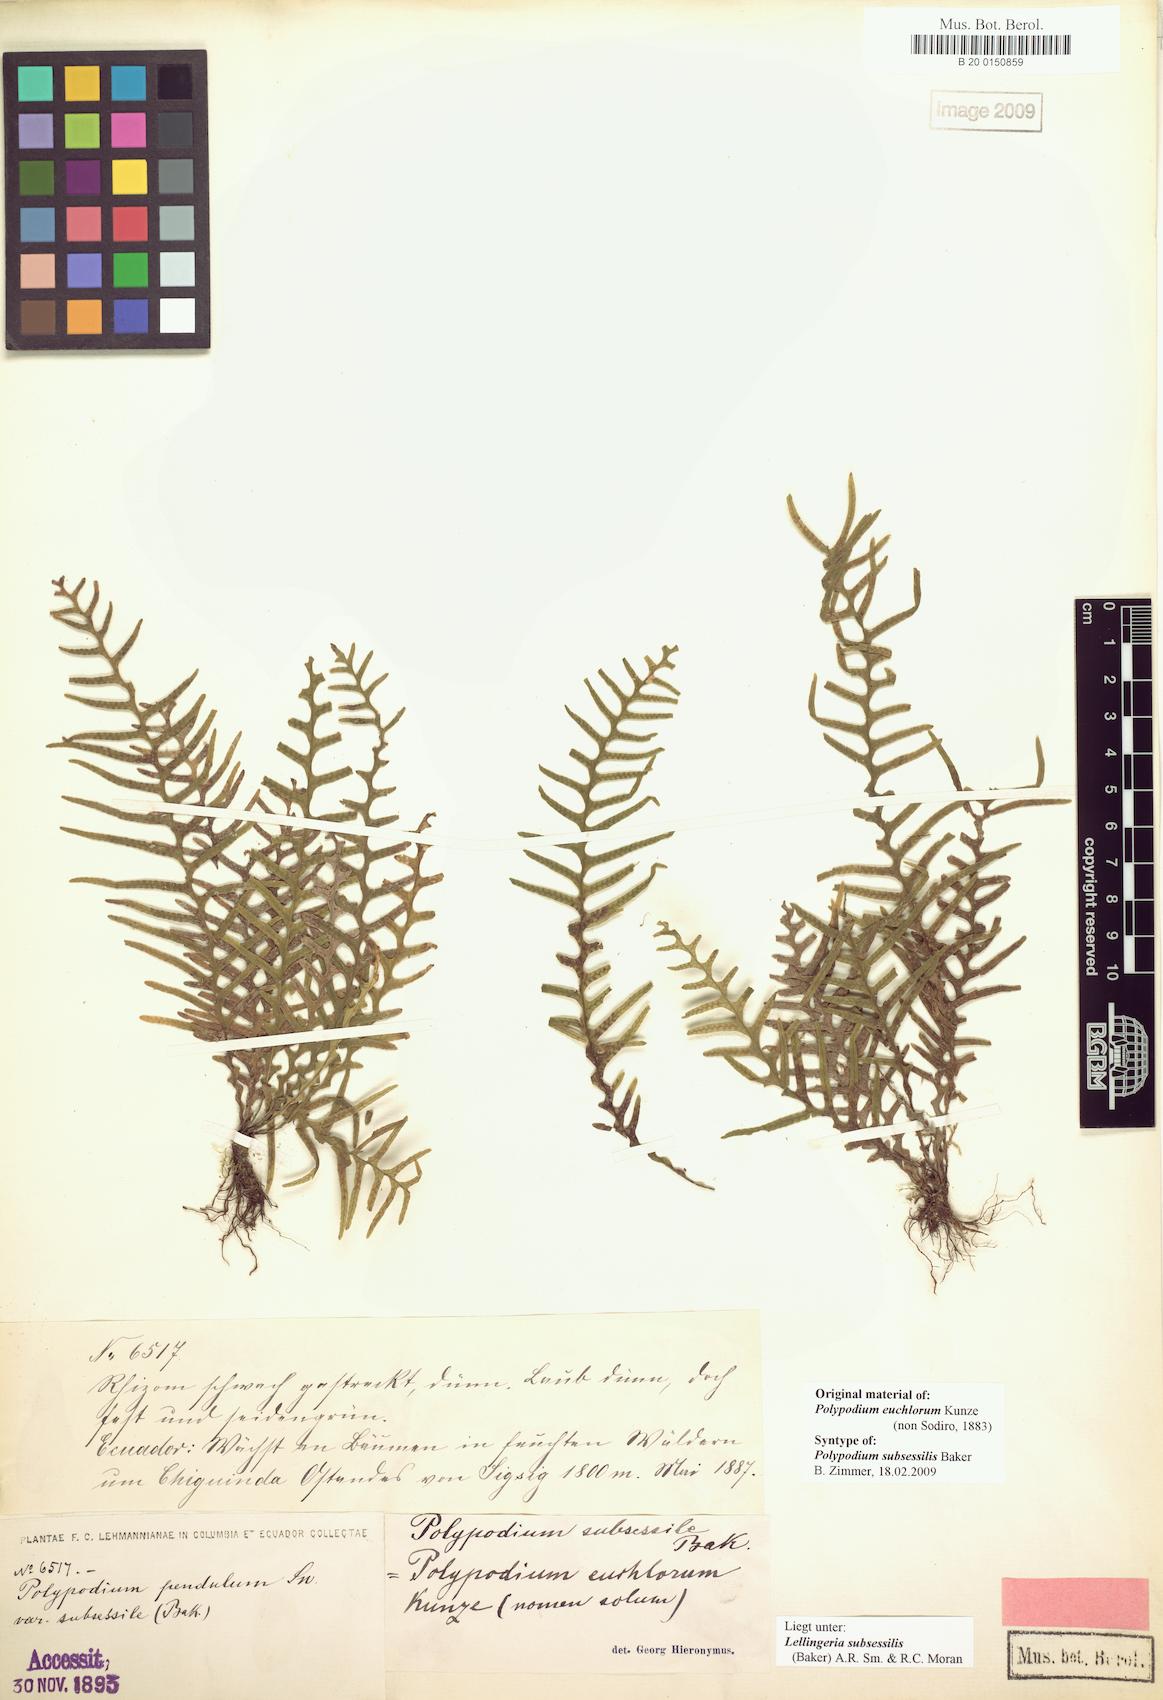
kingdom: Plantae
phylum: Tracheophyta
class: Polypodiopsida
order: Polypodiales
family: Polypodiaceae
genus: Lellingeria
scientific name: Lellingeria subsessilis
